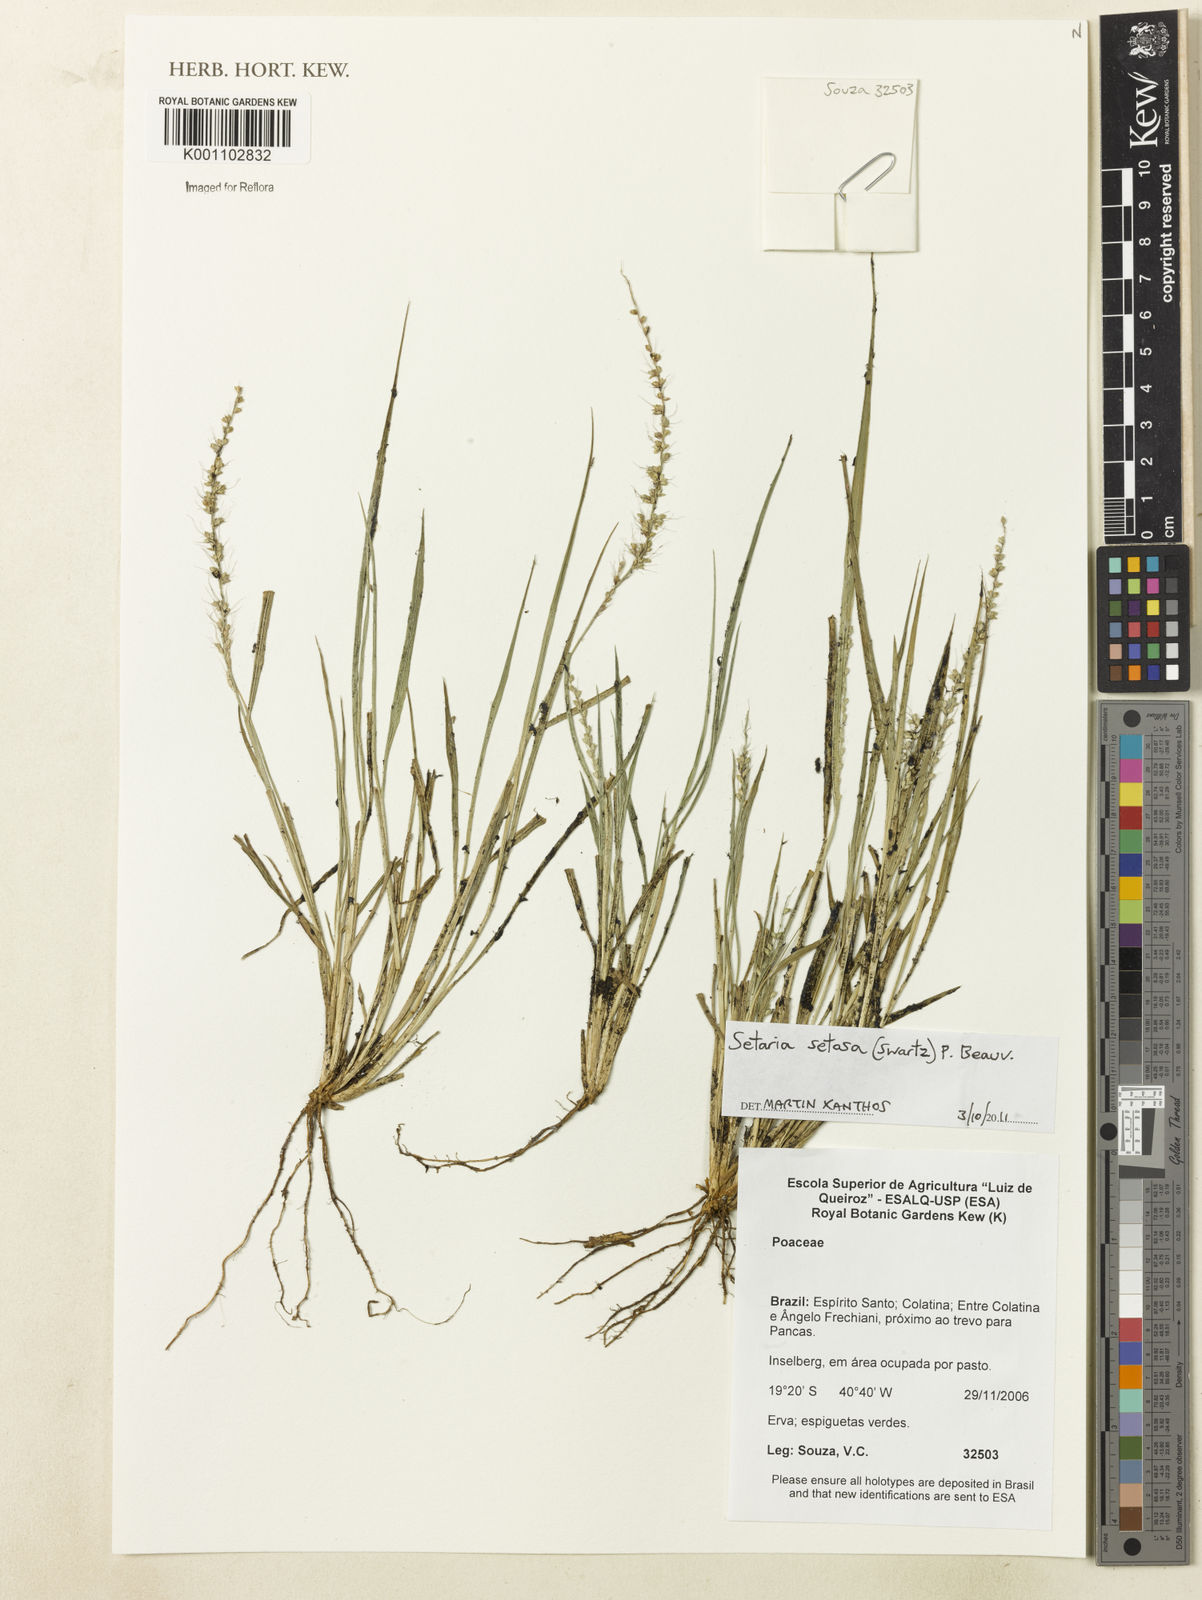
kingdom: Plantae
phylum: Tracheophyta
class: Liliopsida
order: Poales
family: Poaceae
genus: Setaria
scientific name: Setaria setosa
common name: West indies bristle grass
